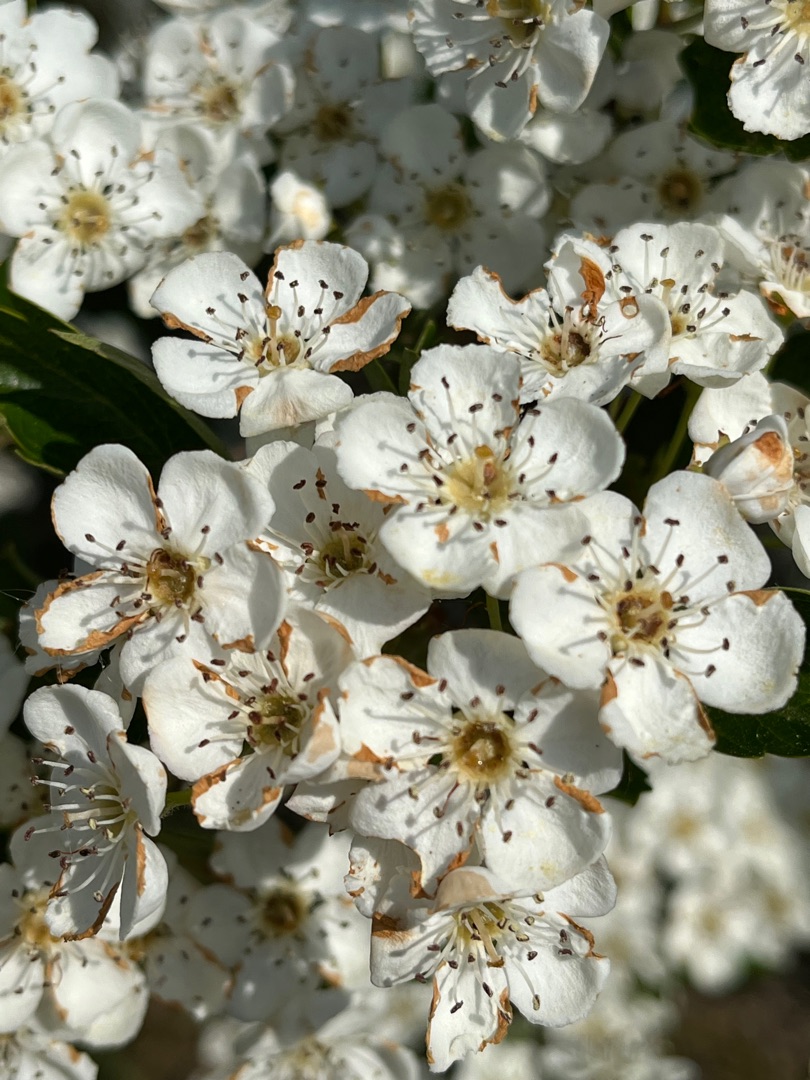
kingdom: Plantae
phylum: Tracheophyta
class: Magnoliopsida
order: Rosales
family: Rosaceae
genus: Crataegus
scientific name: Crataegus monogyna
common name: Engriflet hvidtjørn
